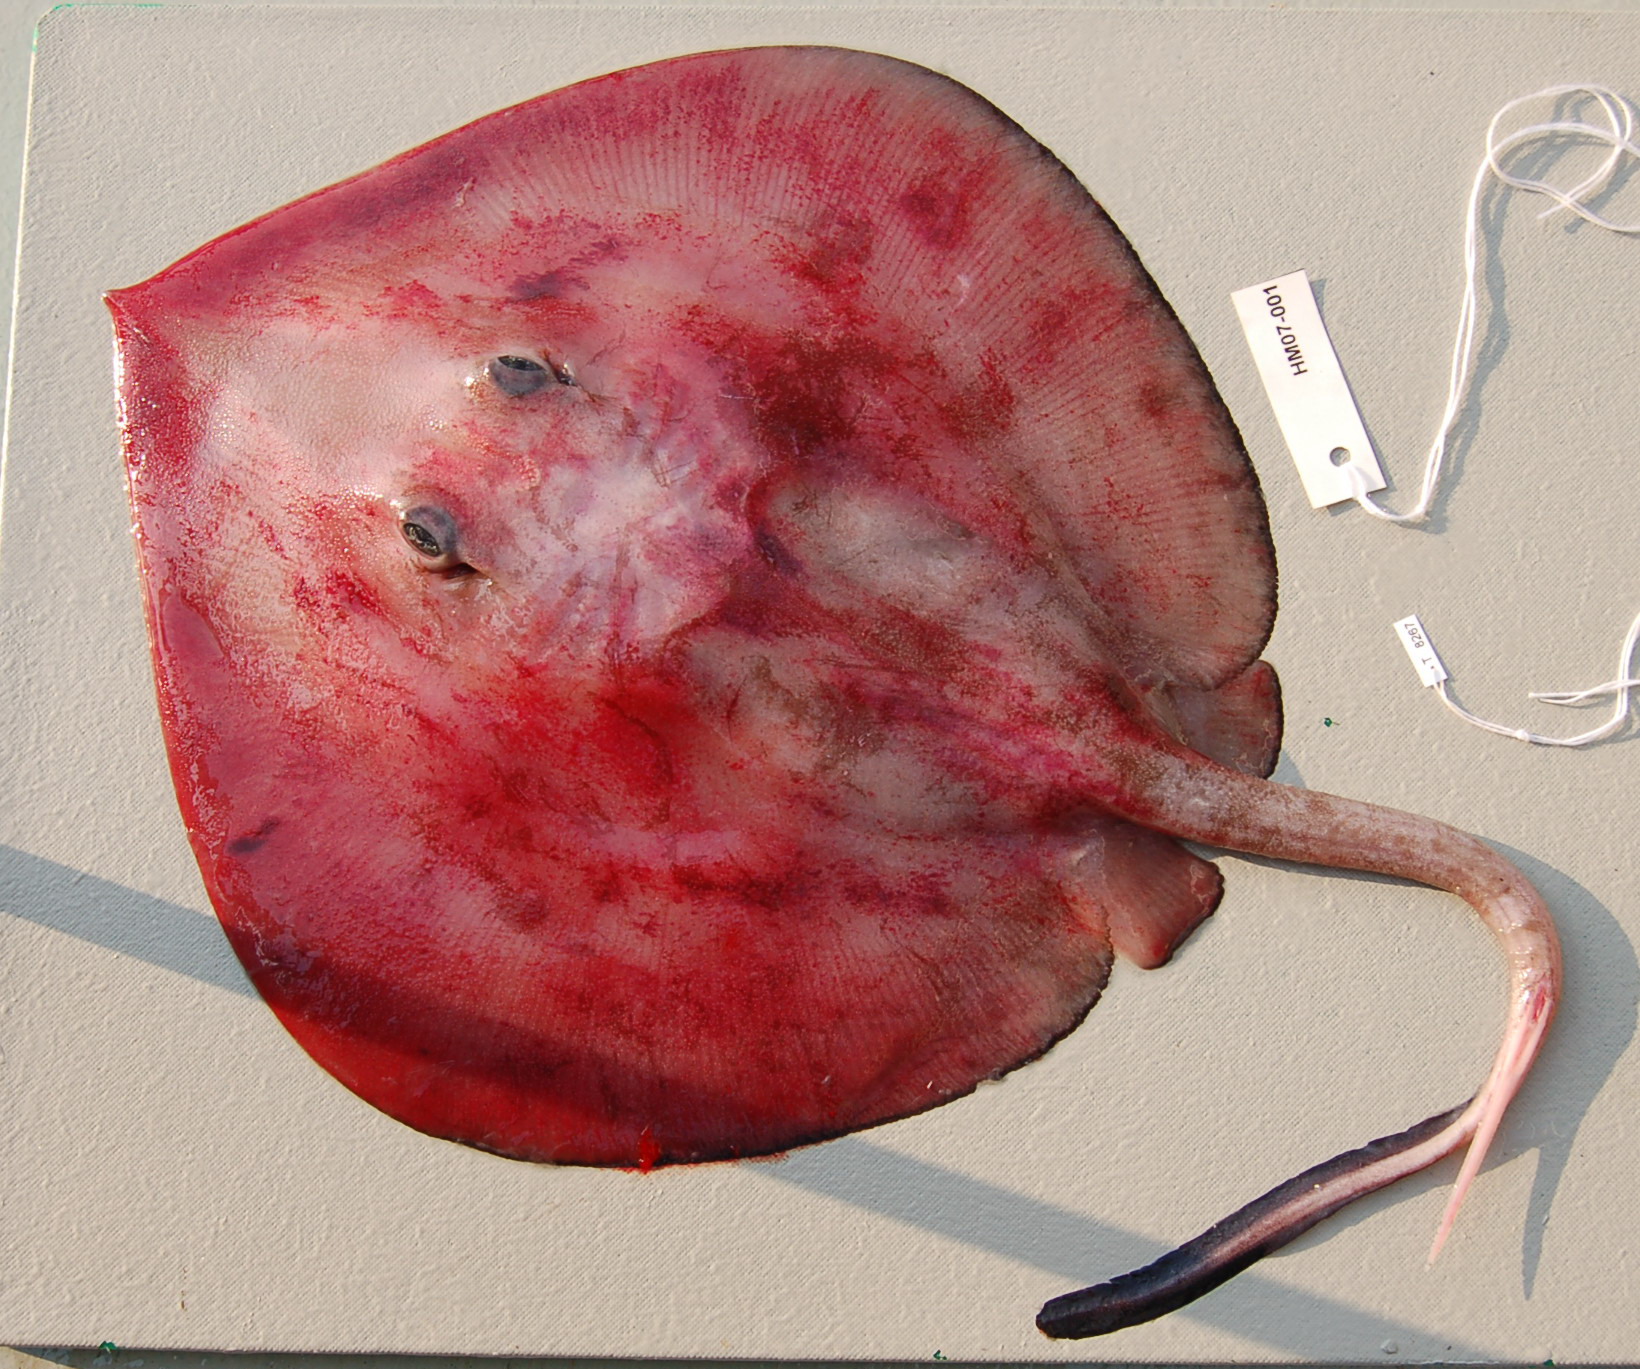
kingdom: Animalia
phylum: Chordata
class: Elasmobranchii
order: Myliobatiformes
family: Plesiobatidae
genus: Plesiobatis
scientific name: Plesiobatis daviesi
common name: Deepwater stingray
